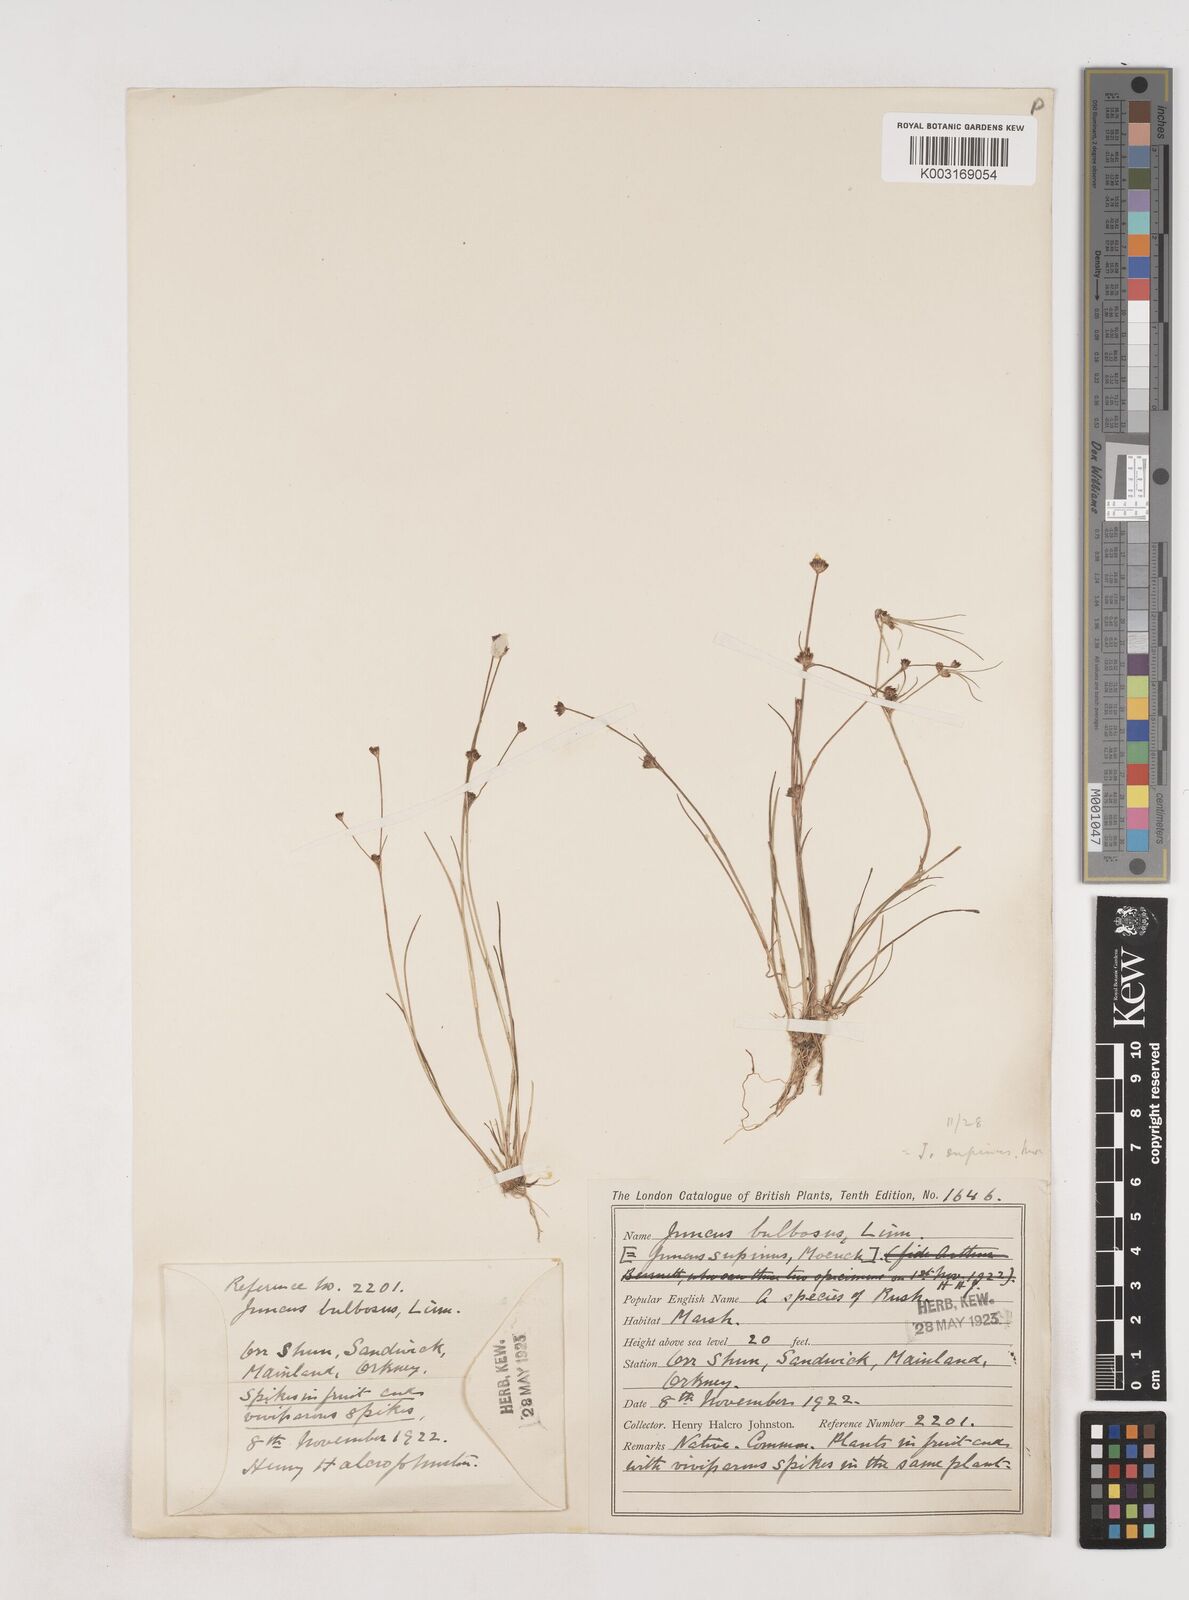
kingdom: Plantae
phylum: Tracheophyta
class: Liliopsida
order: Poales
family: Juncaceae
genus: Juncus
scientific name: Juncus bulbosus
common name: Bulbous rush
